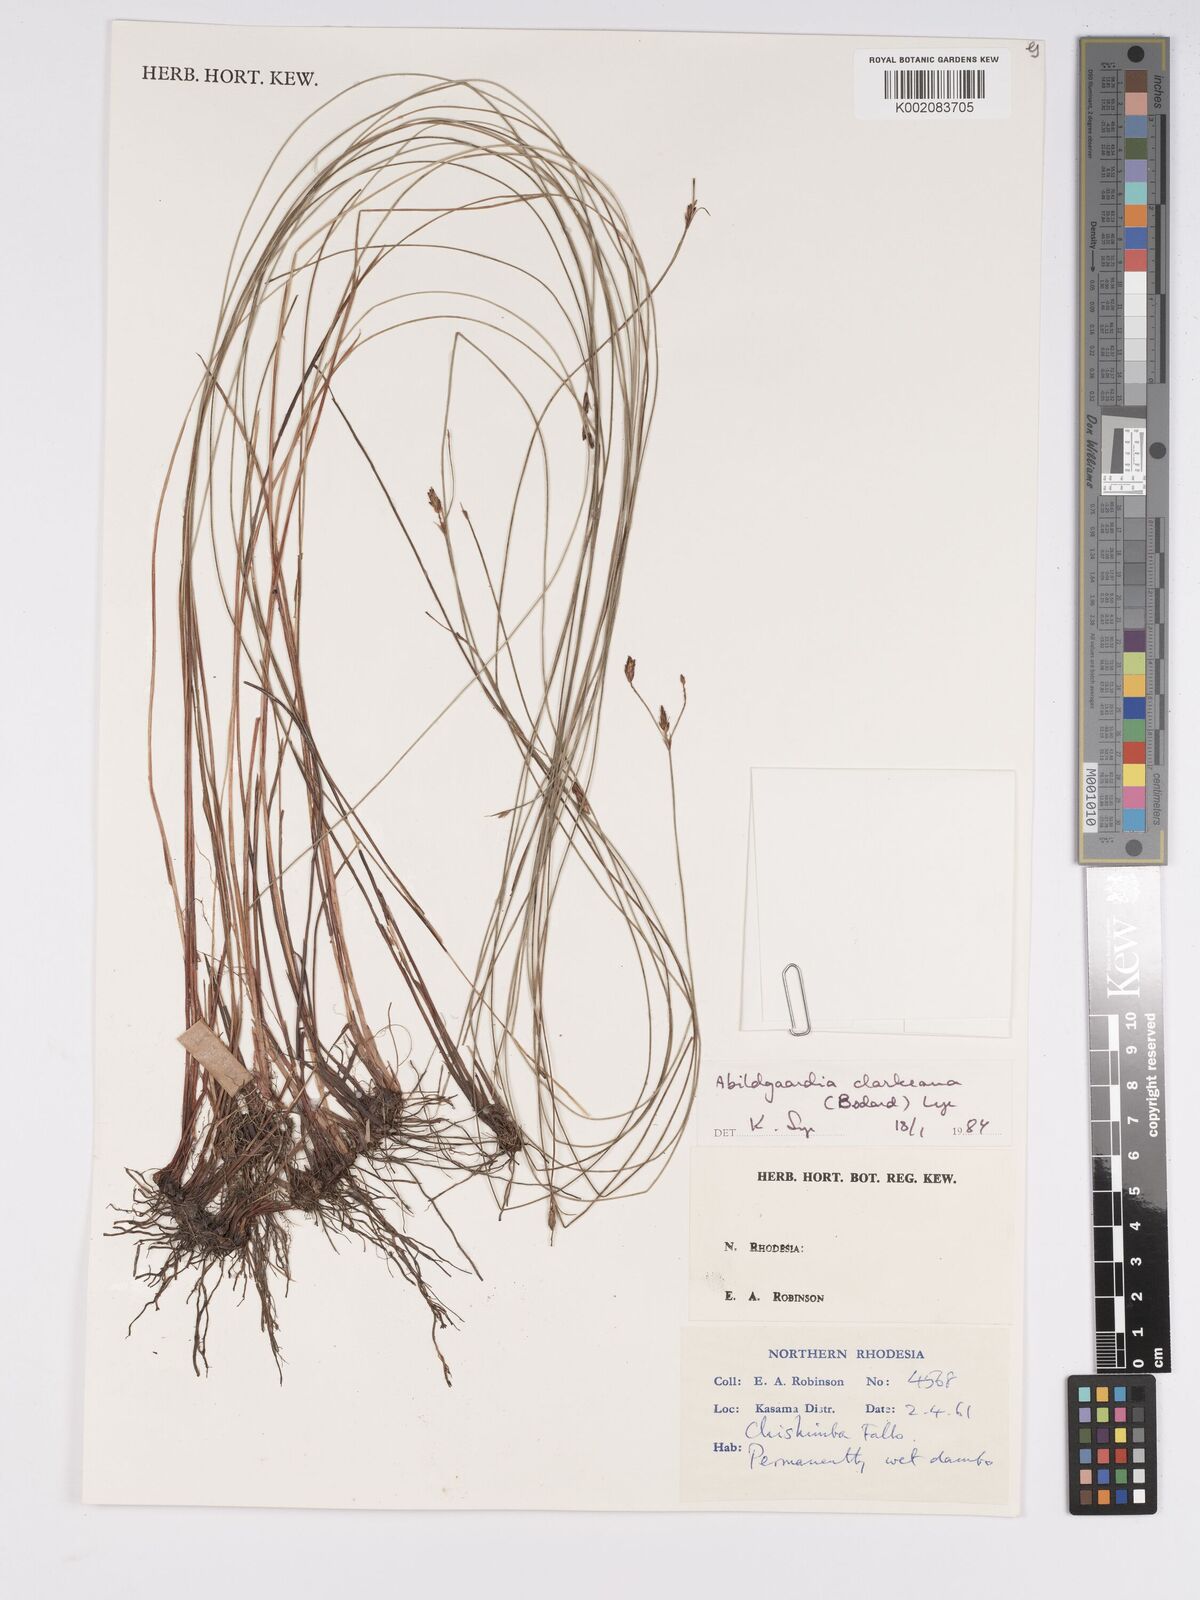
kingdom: Plantae
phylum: Tracheophyta
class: Liliopsida
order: Poales
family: Cyperaceae
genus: Bulbostylis
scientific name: Bulbostylis oritrephes
